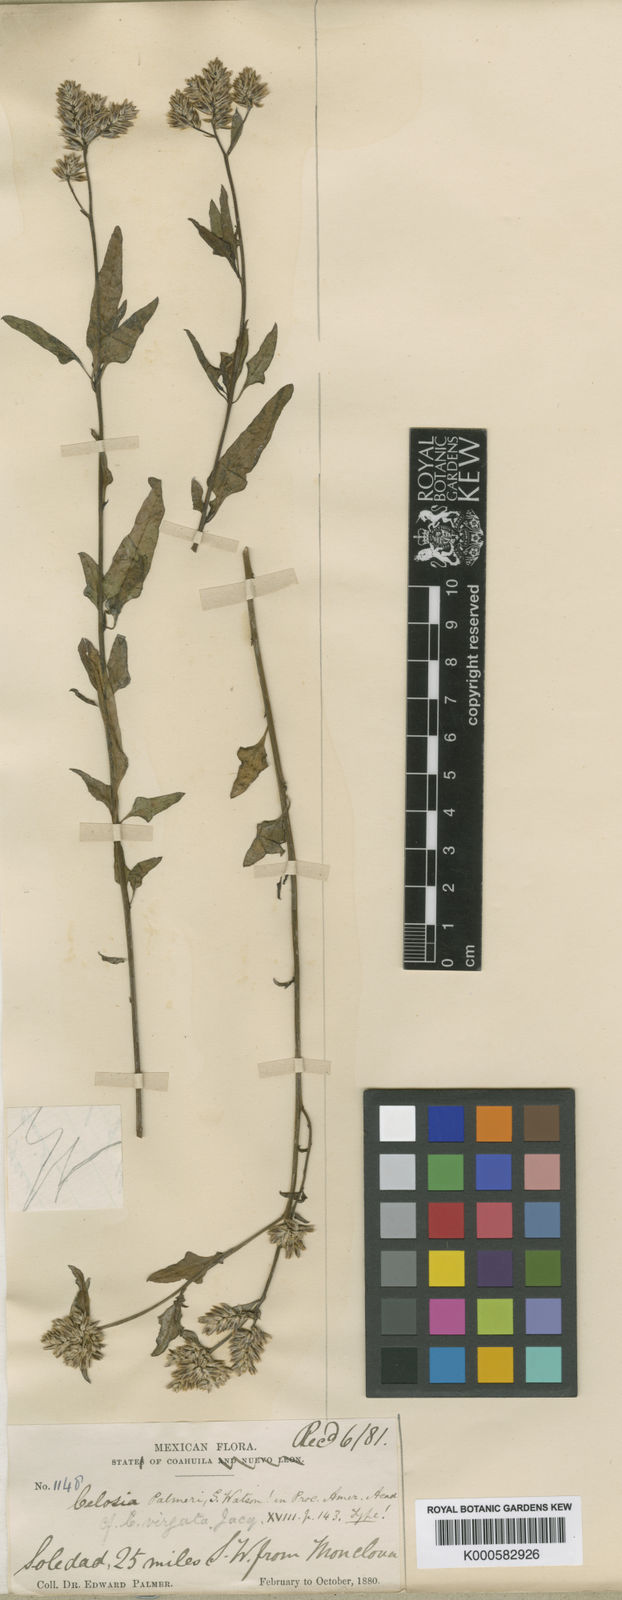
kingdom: Plantae
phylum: Tracheophyta
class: Magnoliopsida
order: Caryophyllales
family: Amaranthaceae
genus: Celosia
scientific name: Celosia palmeri
